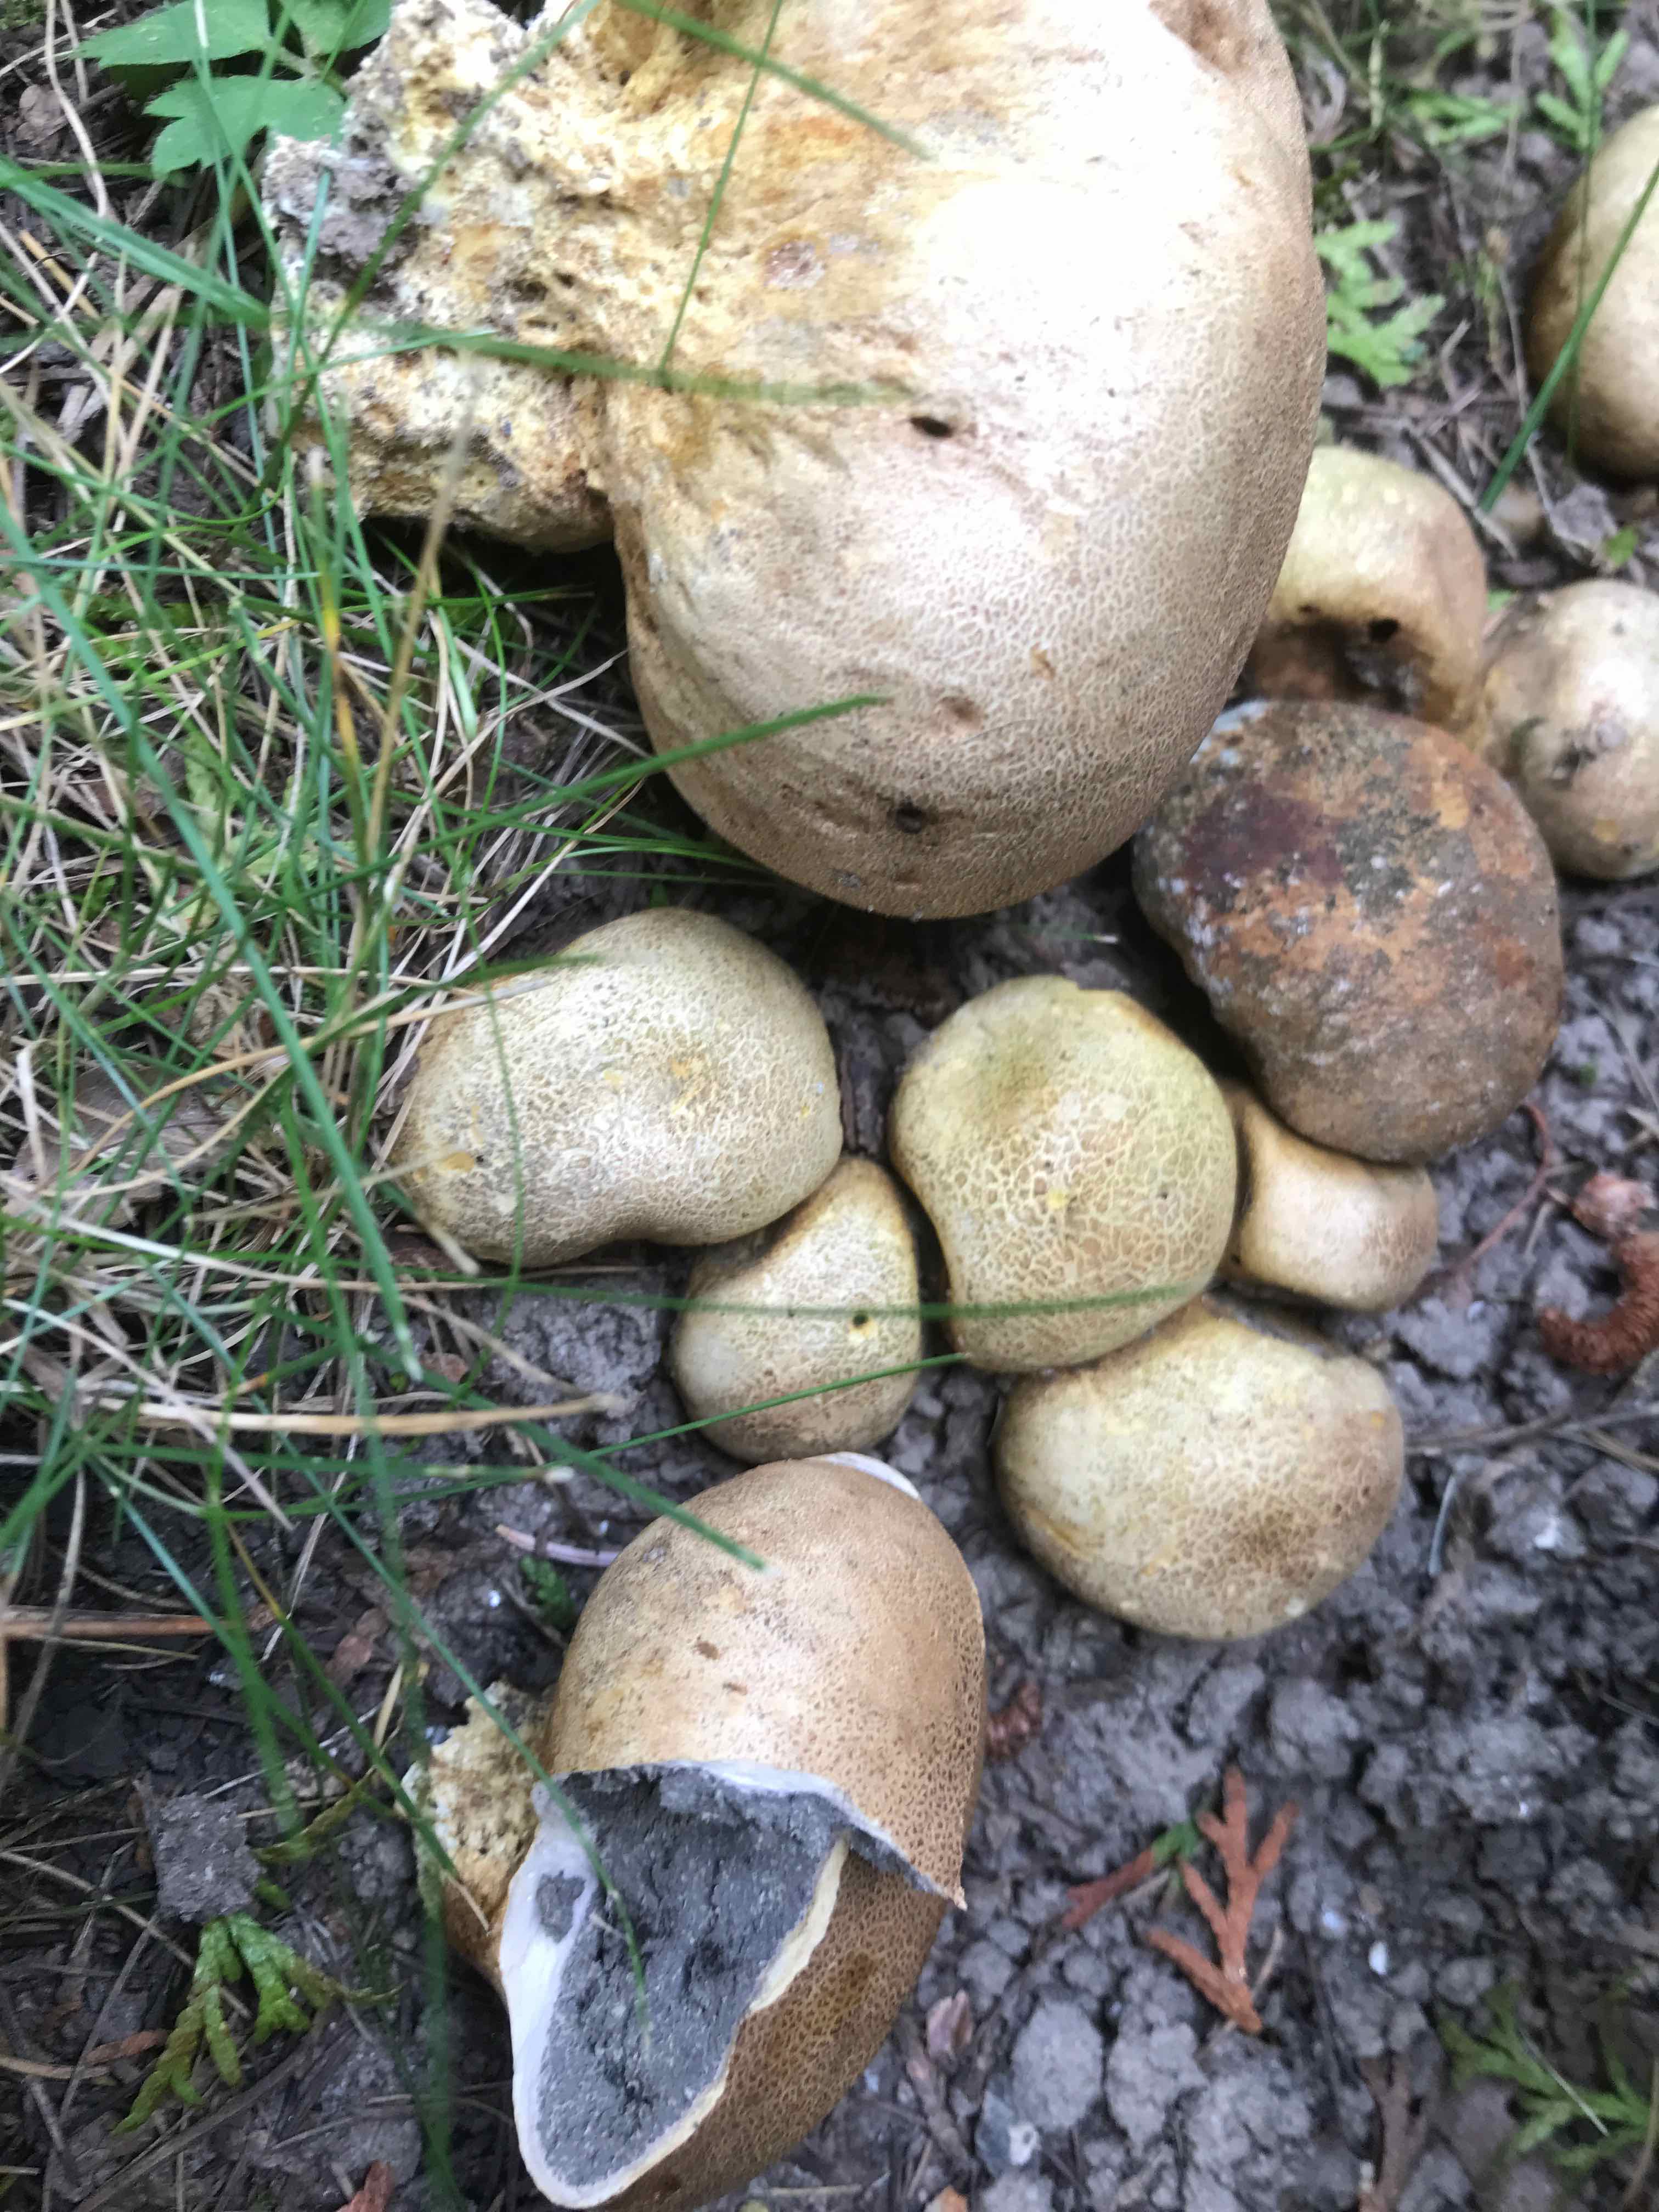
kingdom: Fungi
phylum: Basidiomycota
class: Agaricomycetes
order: Boletales
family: Sclerodermataceae
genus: Scleroderma
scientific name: Scleroderma
